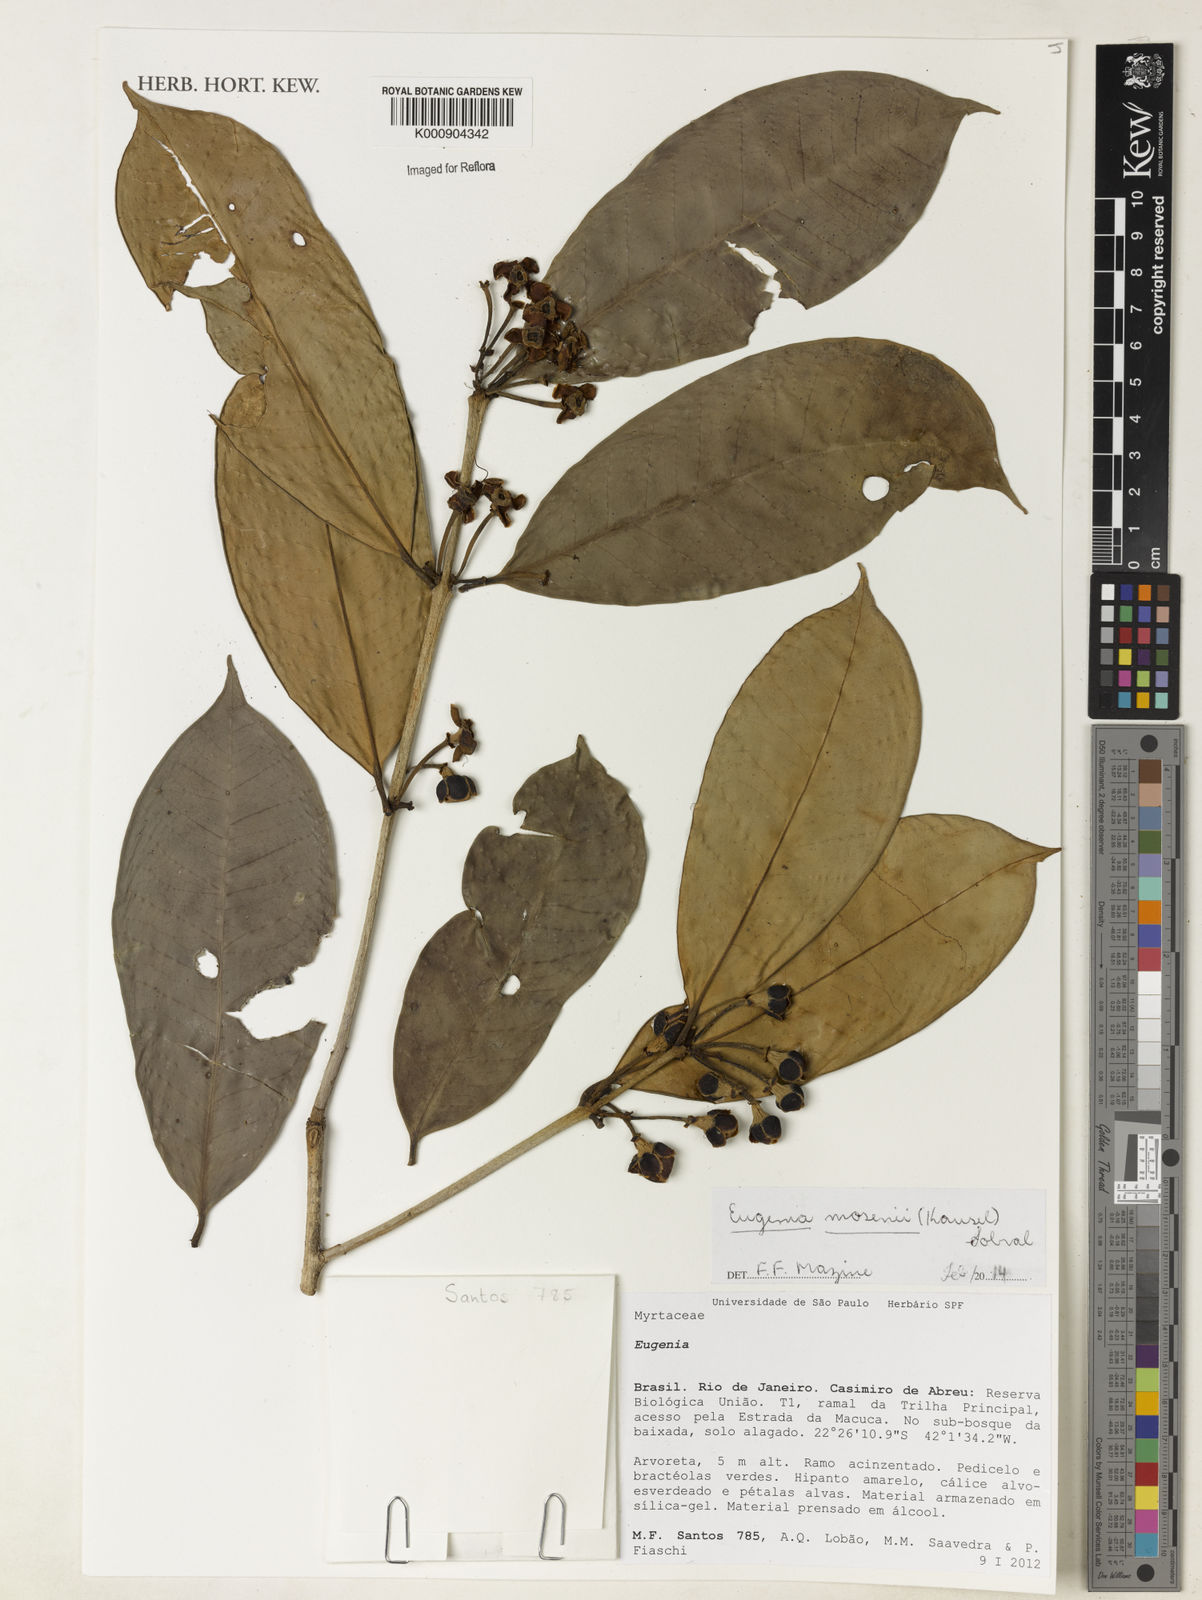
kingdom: Plantae
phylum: Tracheophyta
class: Magnoliopsida
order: Myrtales
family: Myrtaceae
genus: Eugenia
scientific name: Eugenia mosenii
